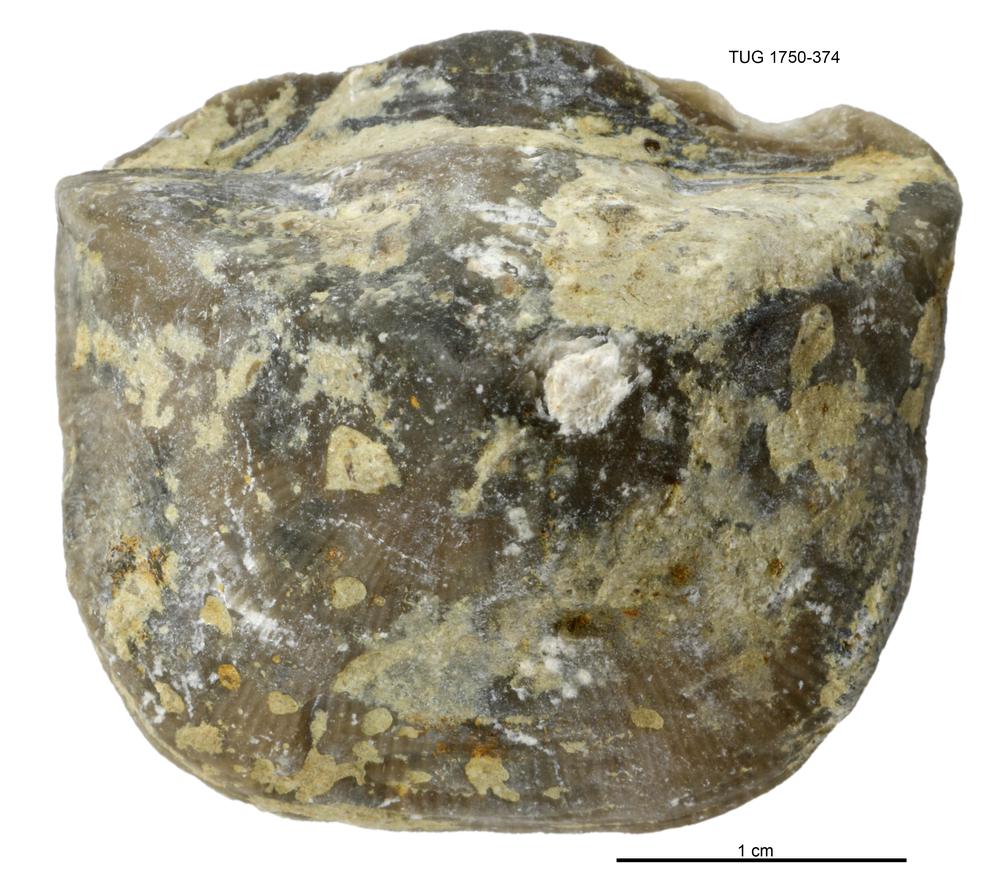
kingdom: Animalia
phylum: Brachiopoda
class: Rhynchonellata
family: Clitambonitidae
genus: Clinambon
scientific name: Clinambon anomalus
